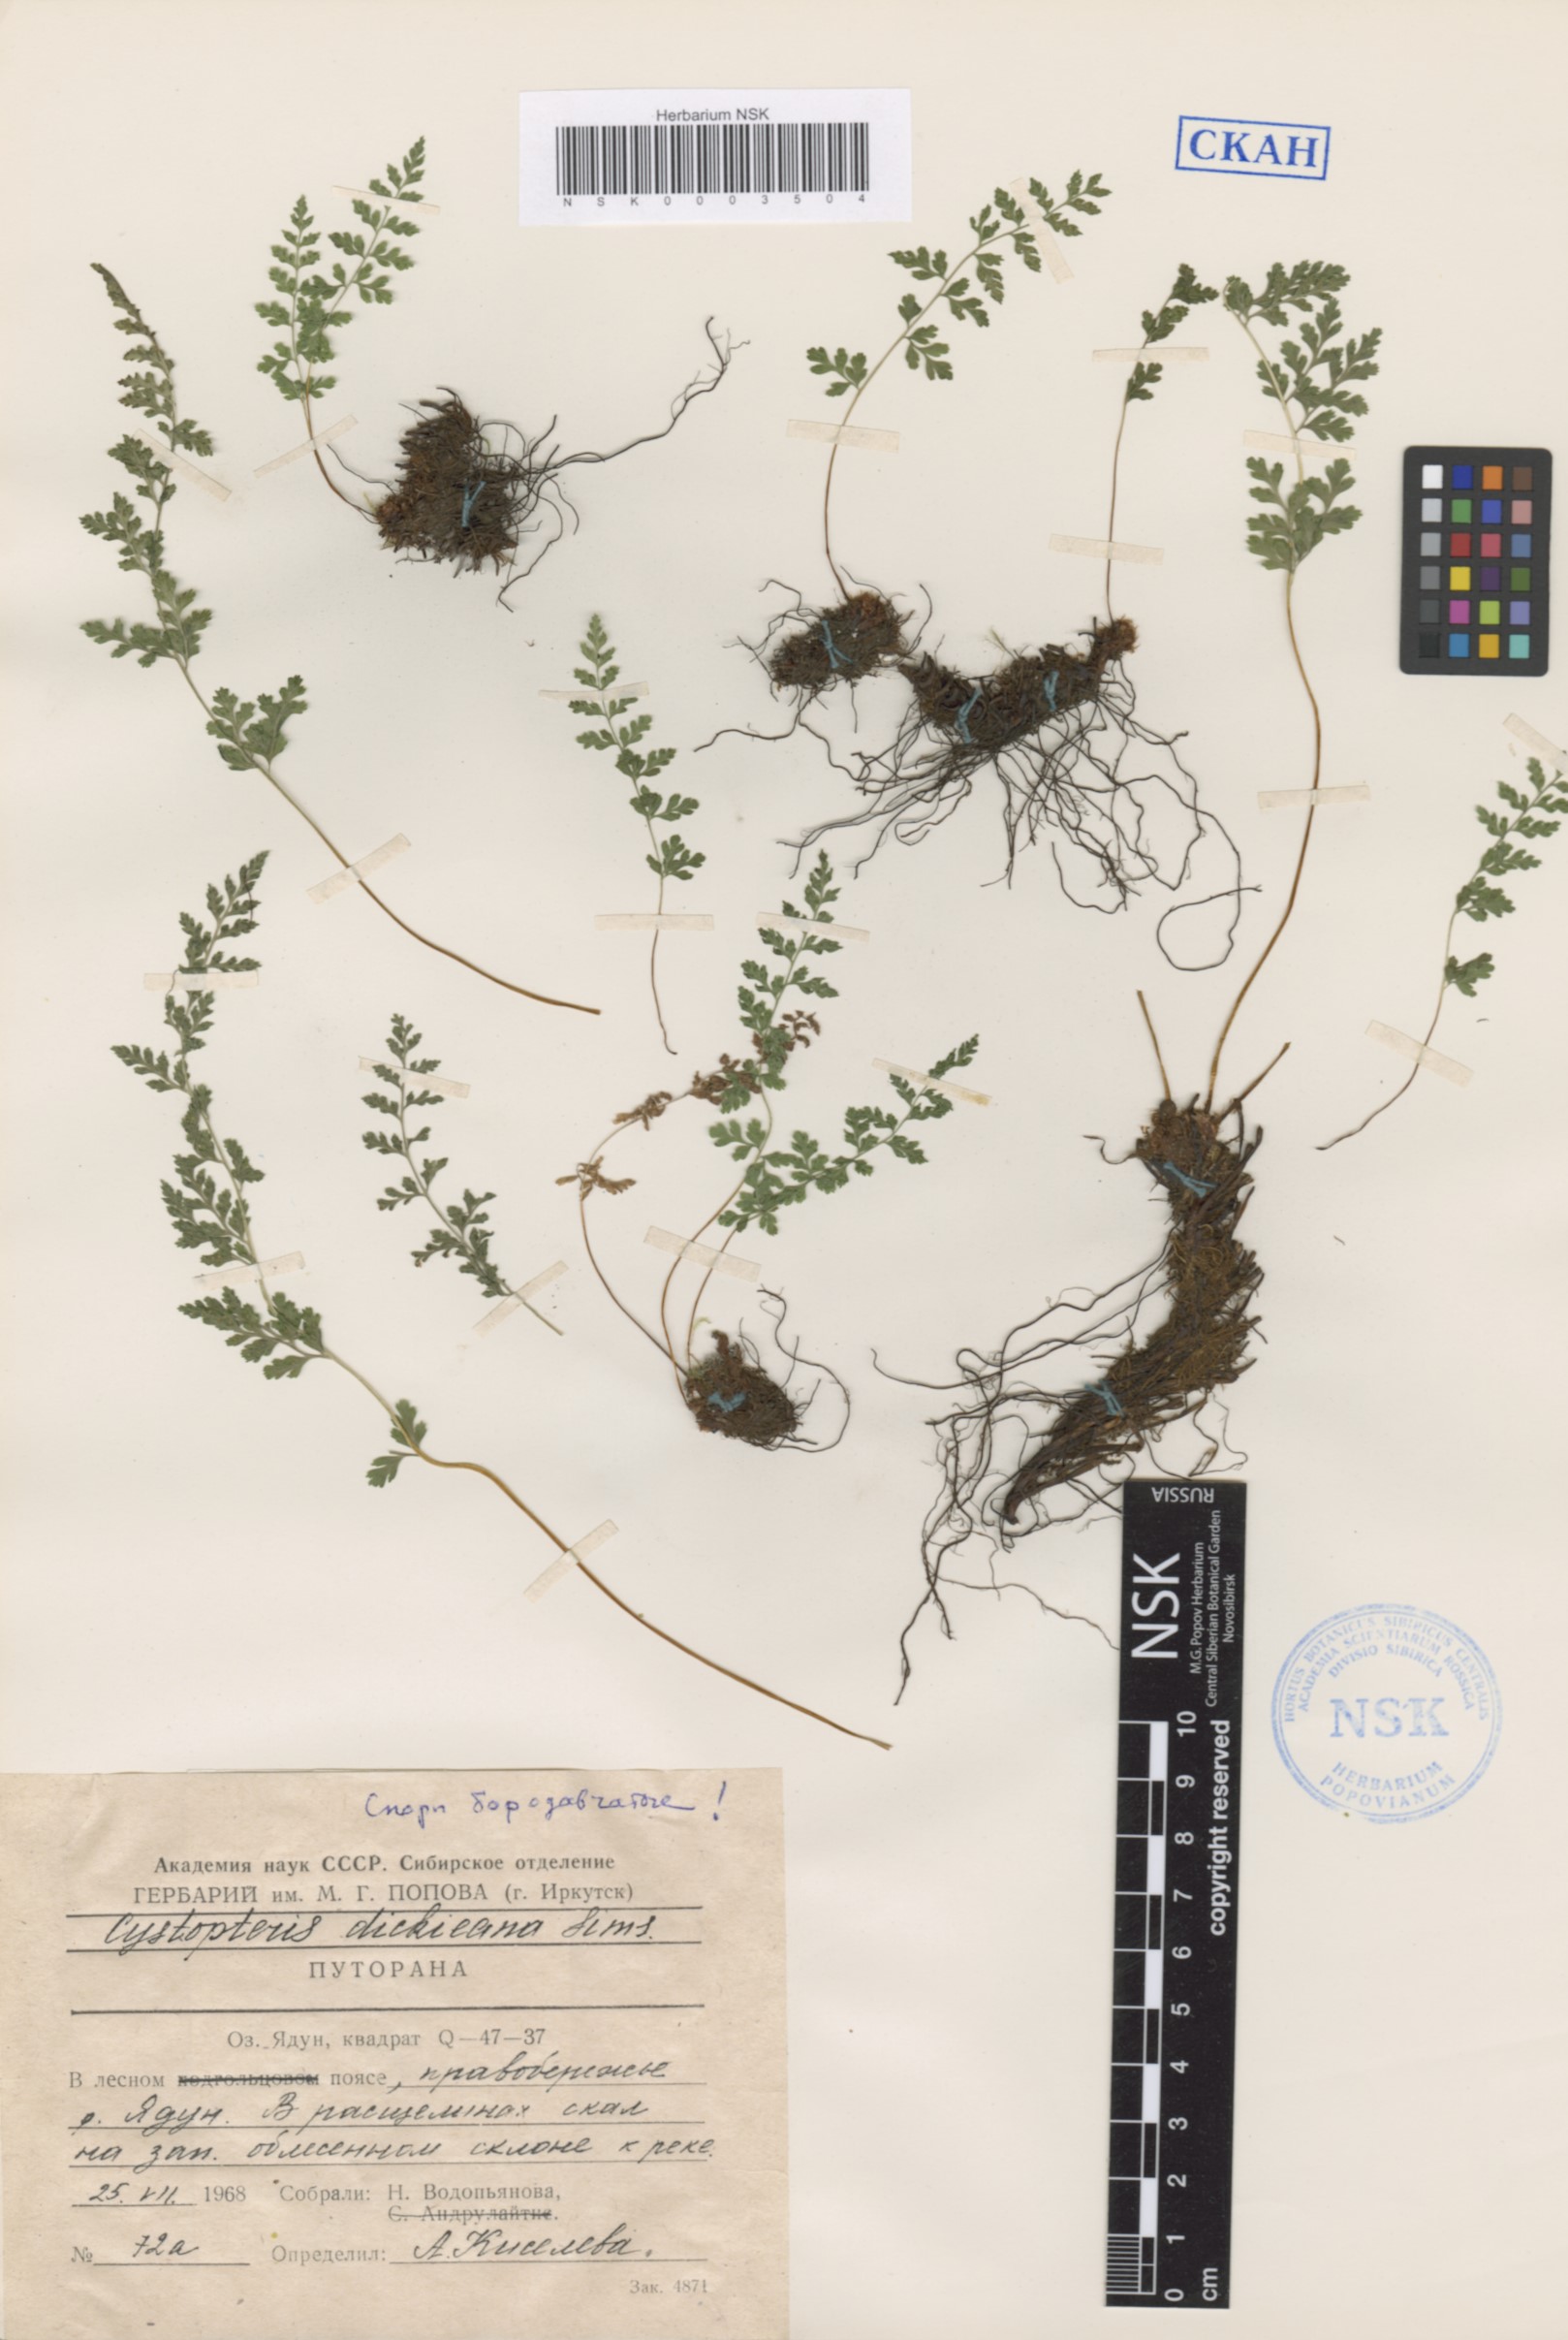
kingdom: Plantae
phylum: Tracheophyta
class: Polypodiopsida
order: Polypodiales
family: Cystopteridaceae
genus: Cystopteris
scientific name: Cystopteris dickieana
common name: Dickie's bladder-fern
